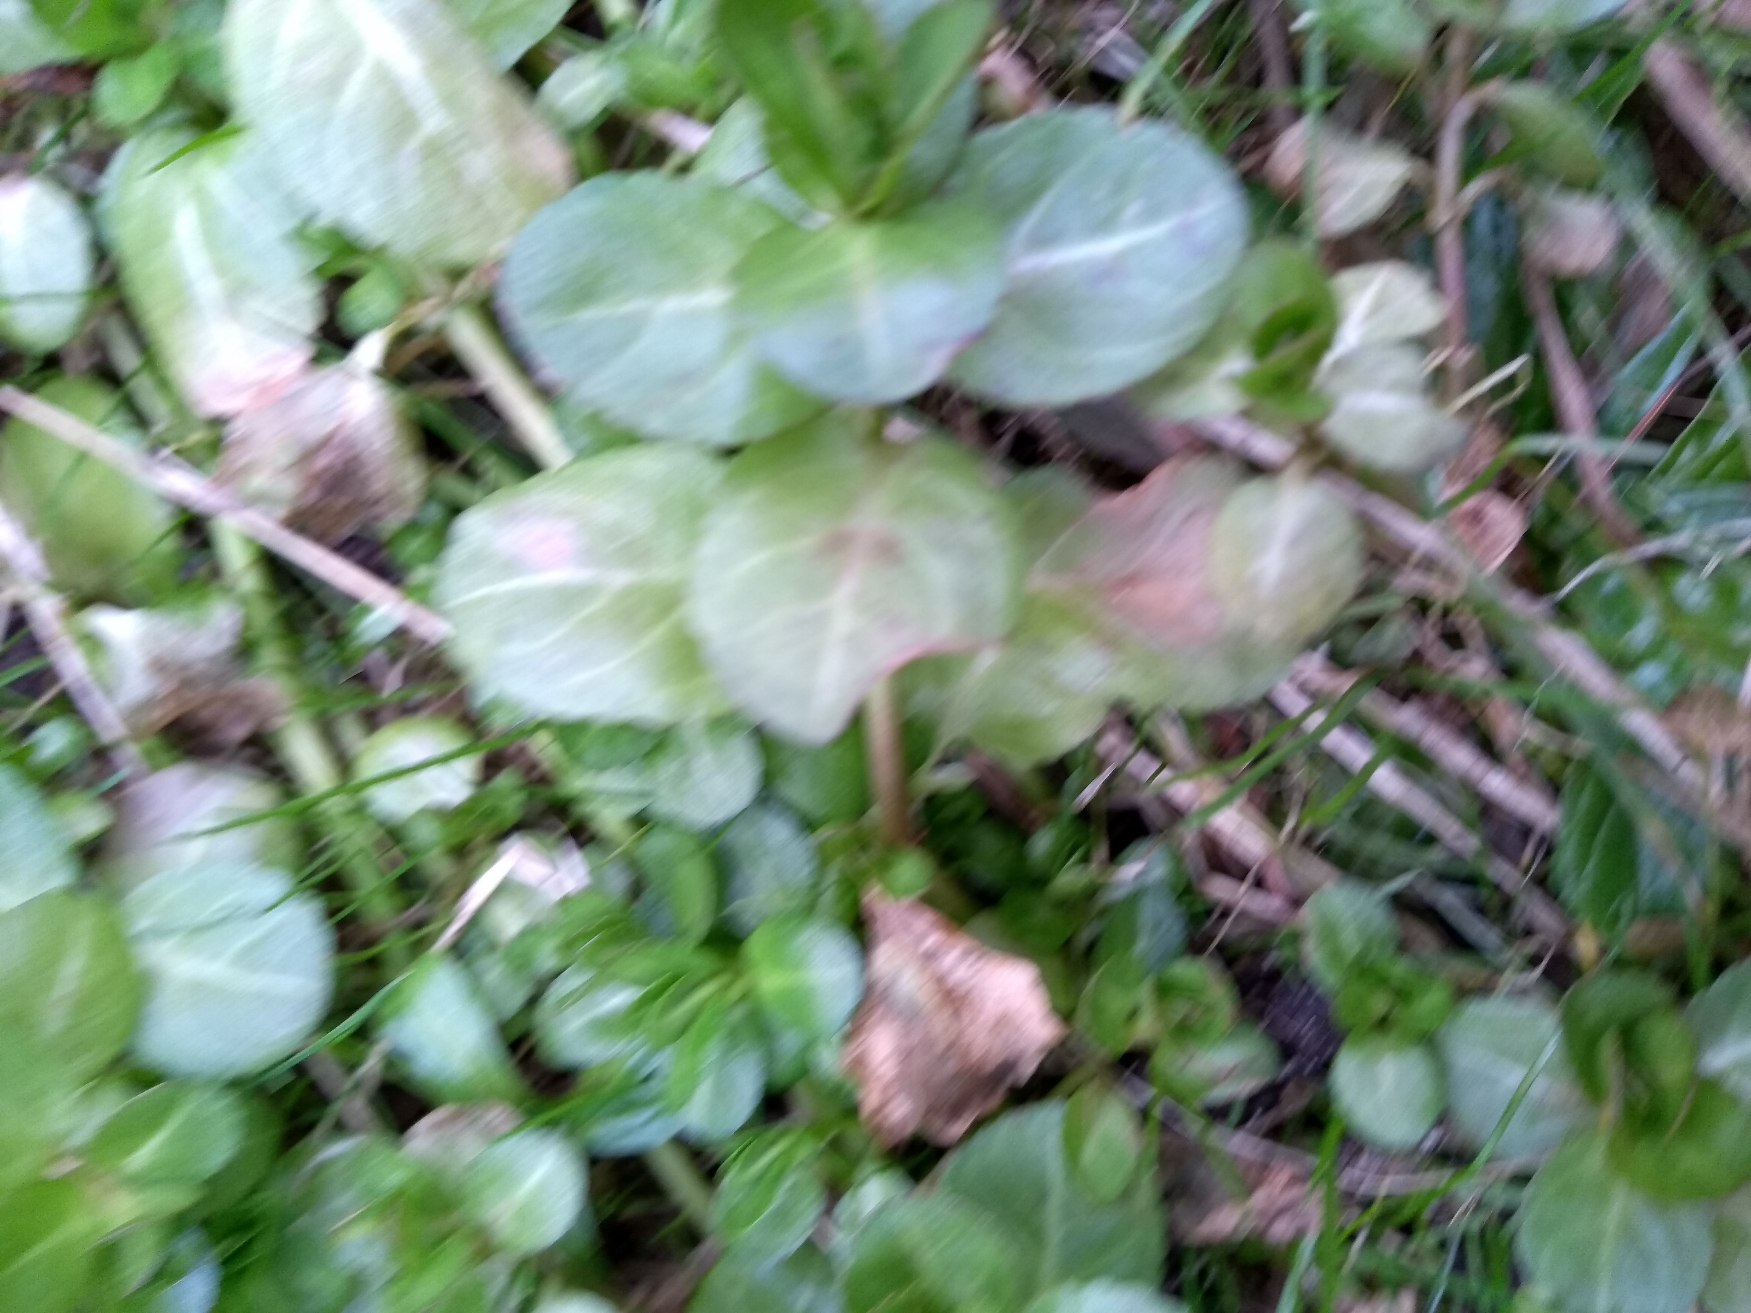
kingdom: Plantae
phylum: Tracheophyta
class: Magnoliopsida
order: Lamiales
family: Plantaginaceae
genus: Veronica
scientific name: Veronica beccabunga
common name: Tykbladet ærenpris
